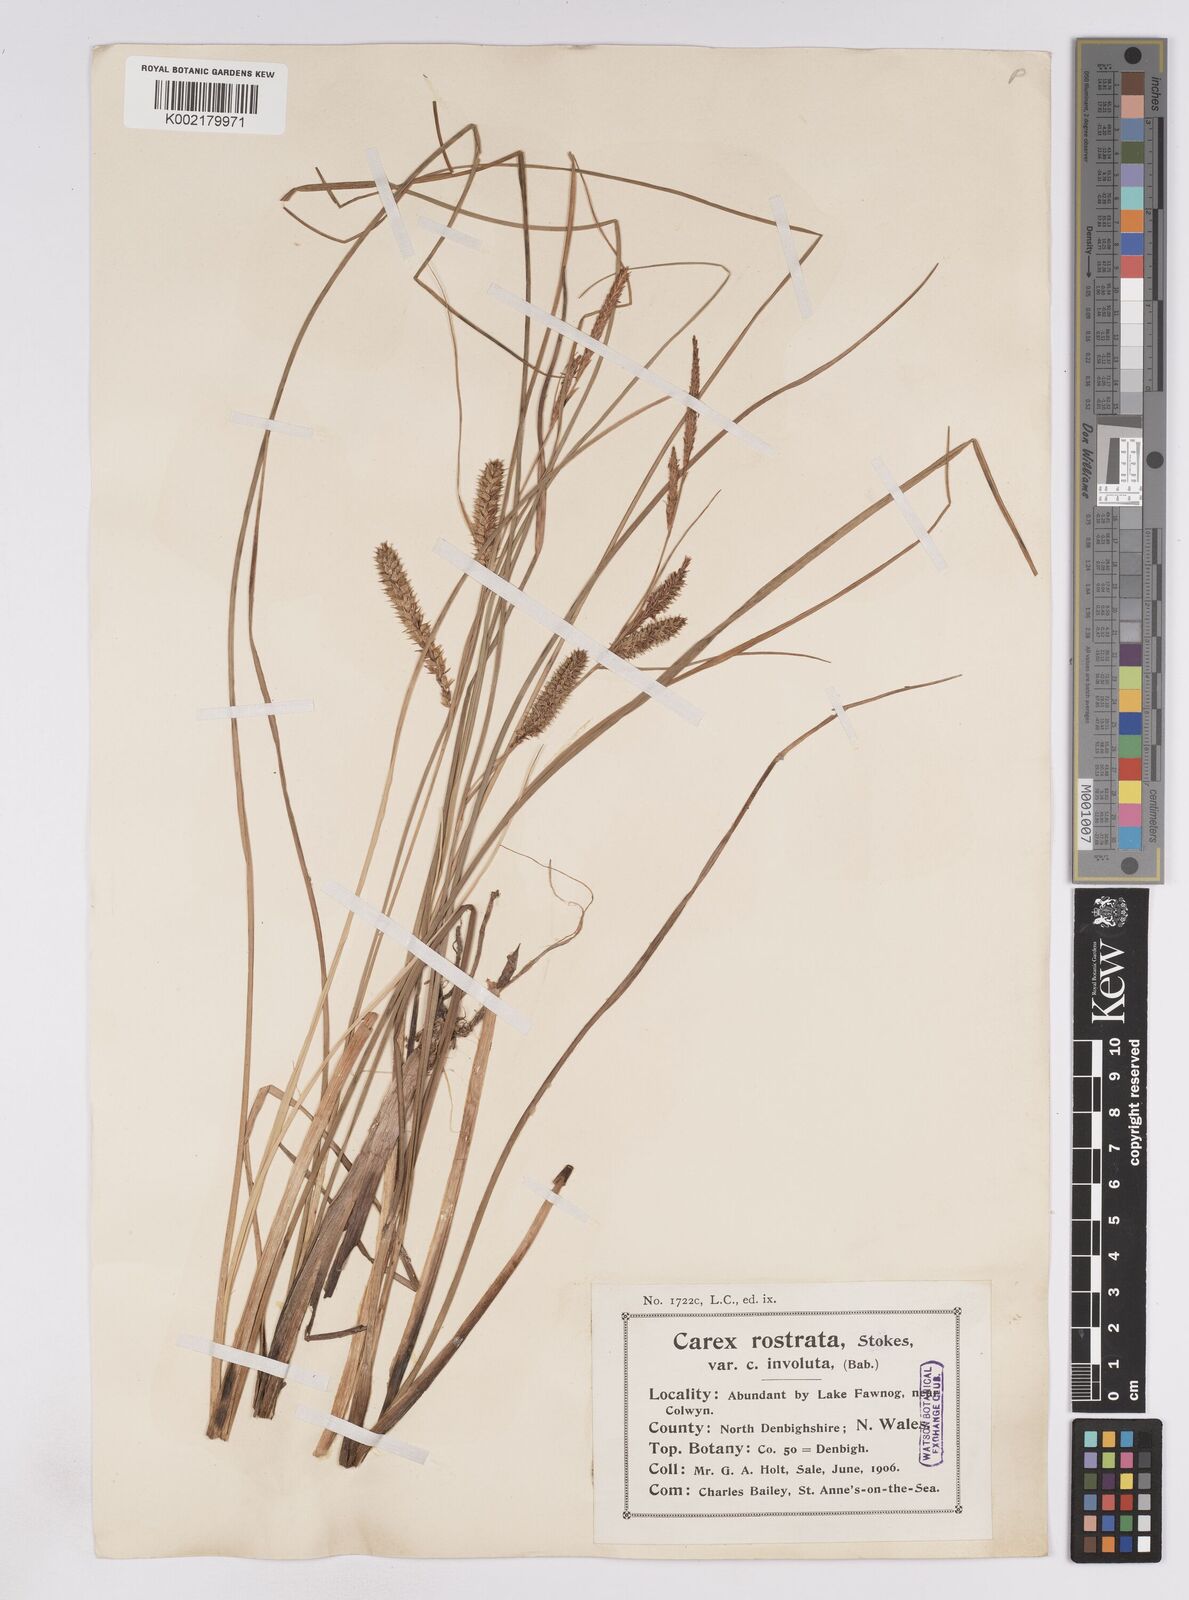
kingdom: Plantae
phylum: Tracheophyta
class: Liliopsida
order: Poales
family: Cyperaceae
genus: Carex
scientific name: Carex rostrata
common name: Bottle sedge
